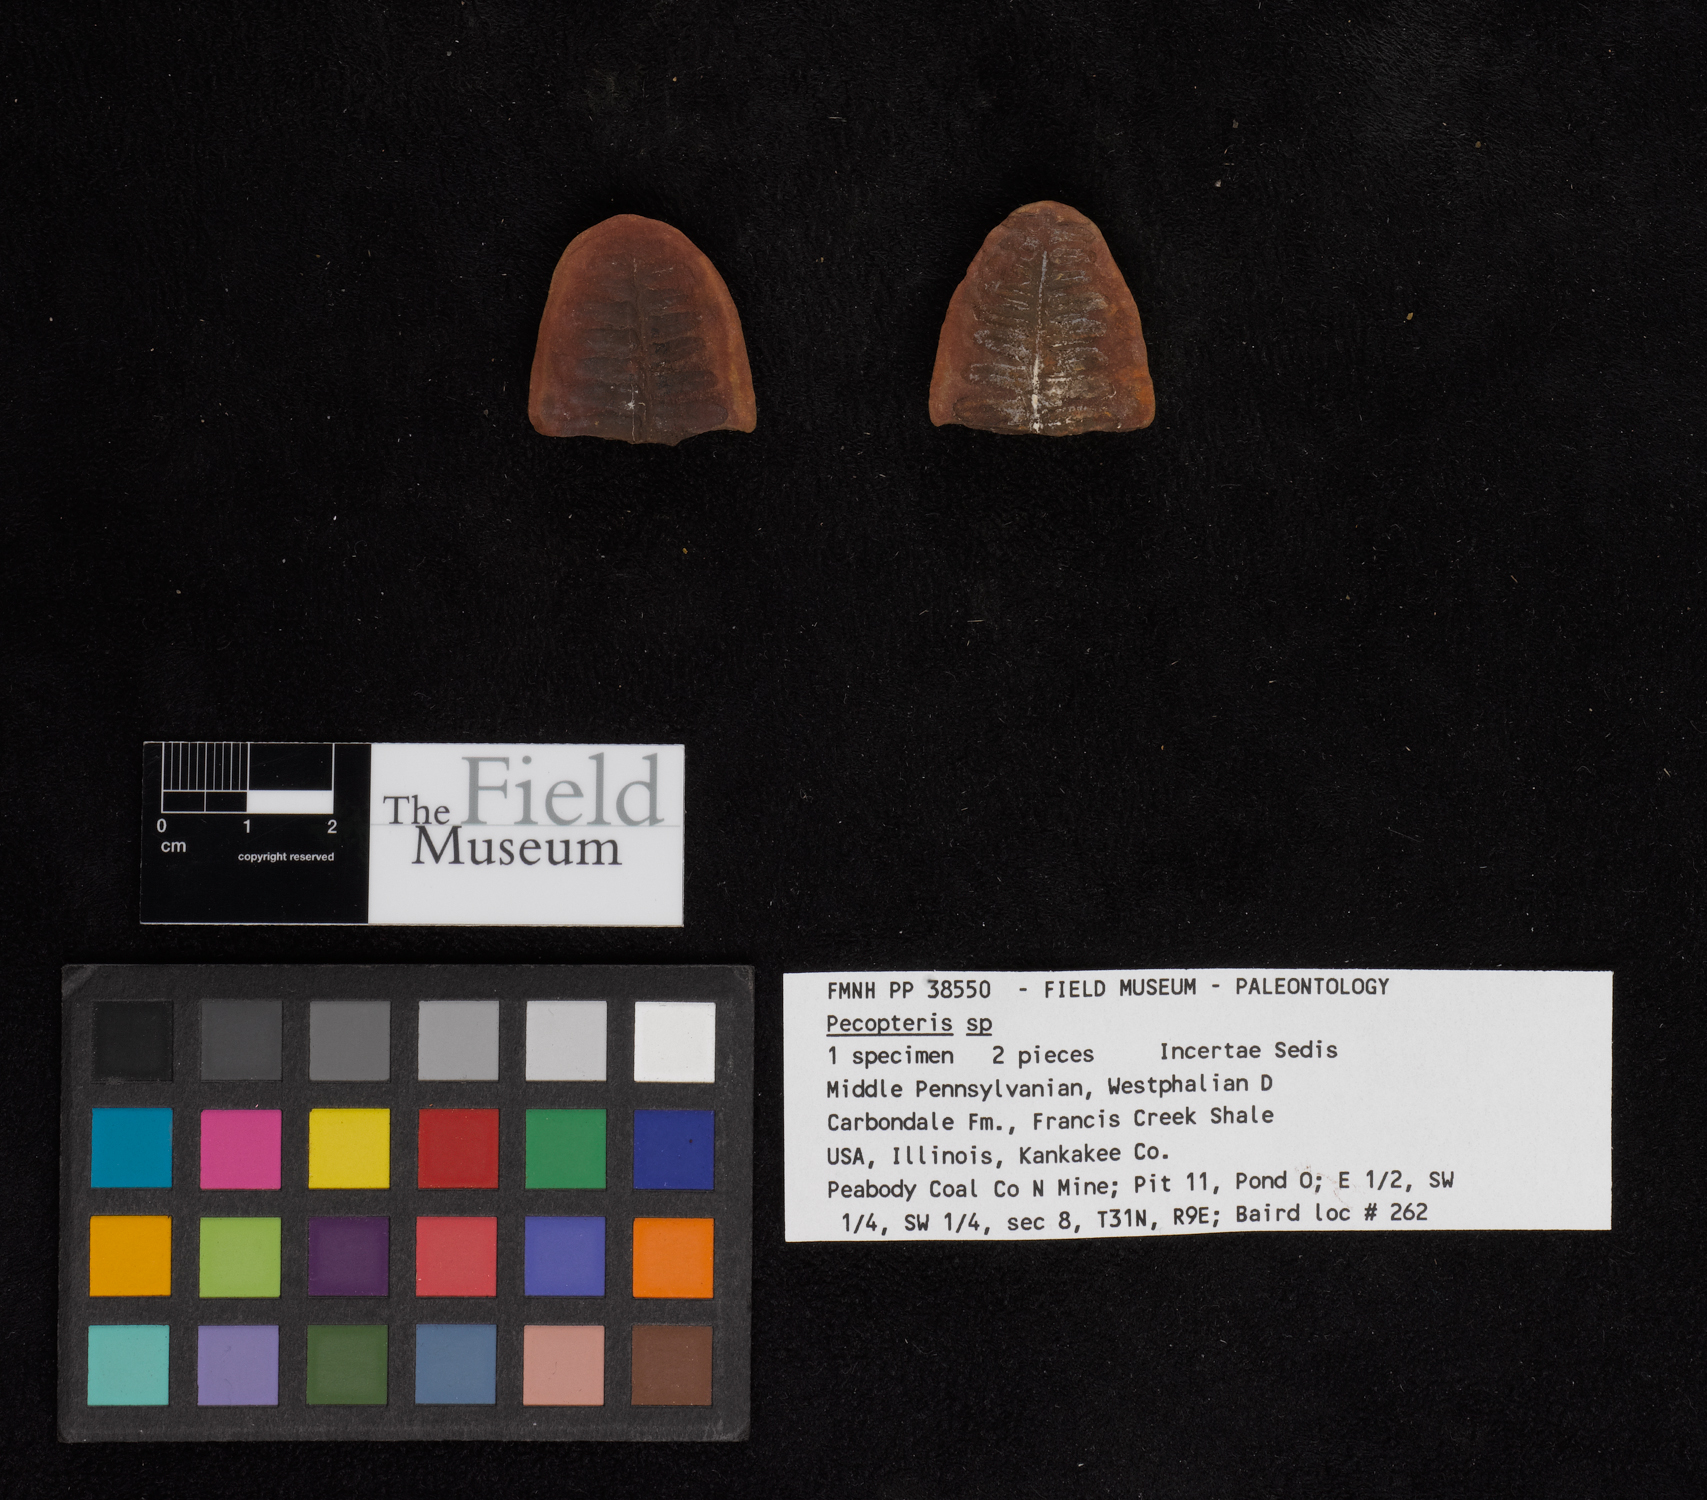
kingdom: Plantae
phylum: Tracheophyta
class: Polypodiopsida
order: Marattiales
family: Asterothecaceae
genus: Pecopteris
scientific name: Pecopteris
